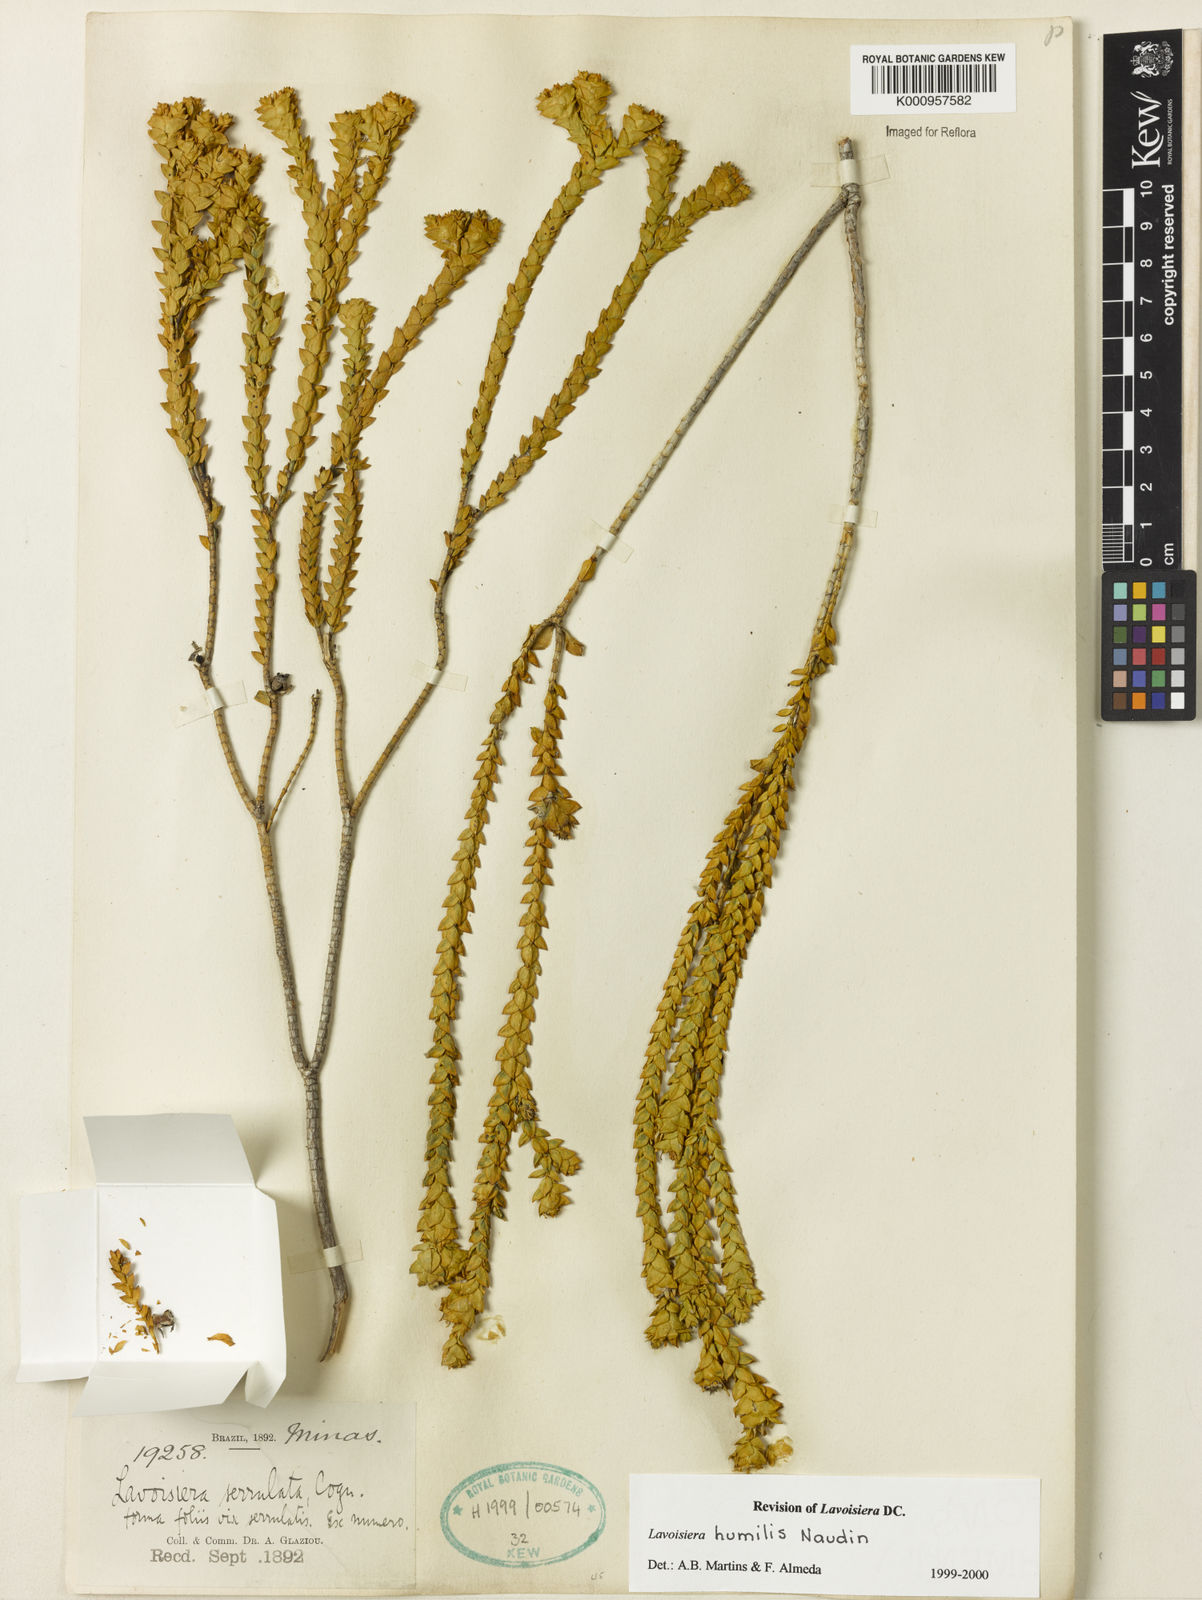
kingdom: Plantae
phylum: Tracheophyta
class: Magnoliopsida
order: Myrtales
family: Melastomataceae
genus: Microlicia
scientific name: Microlicia minor
